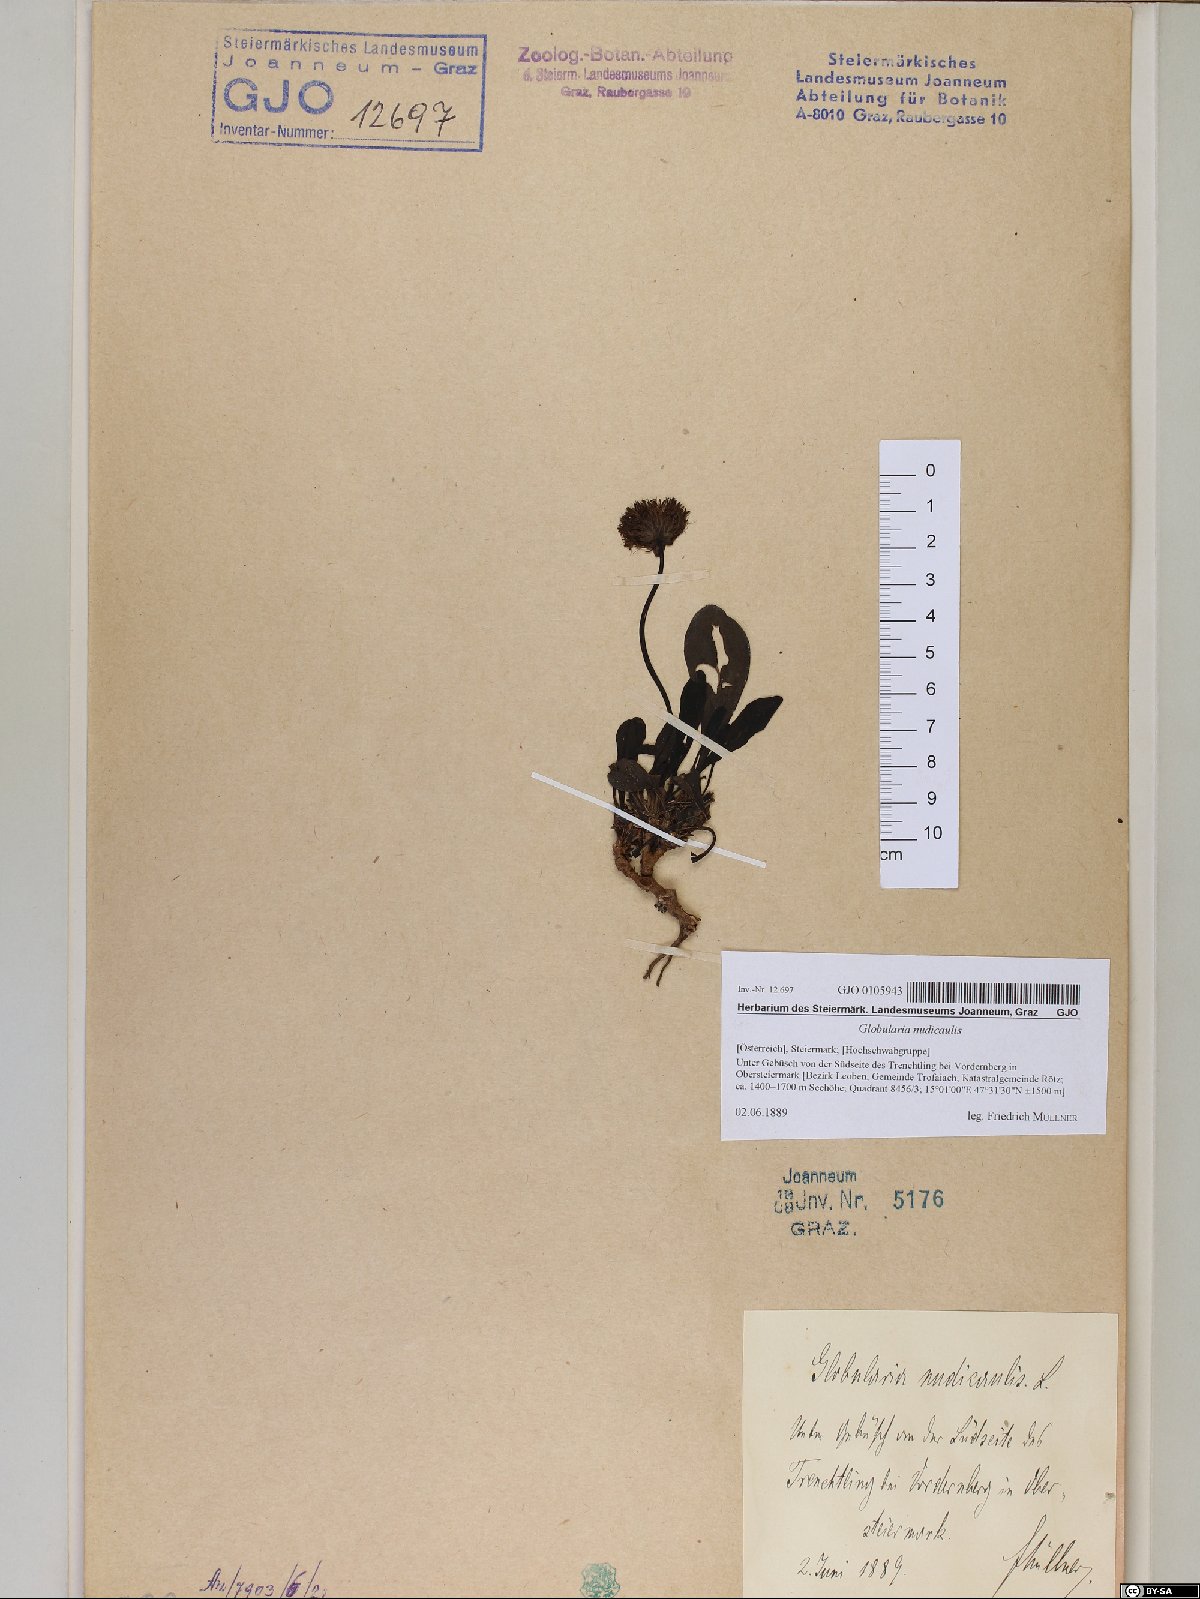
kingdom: Plantae
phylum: Tracheophyta
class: Magnoliopsida
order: Lamiales
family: Plantaginaceae
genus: Globularia
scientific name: Globularia nudicaulis
